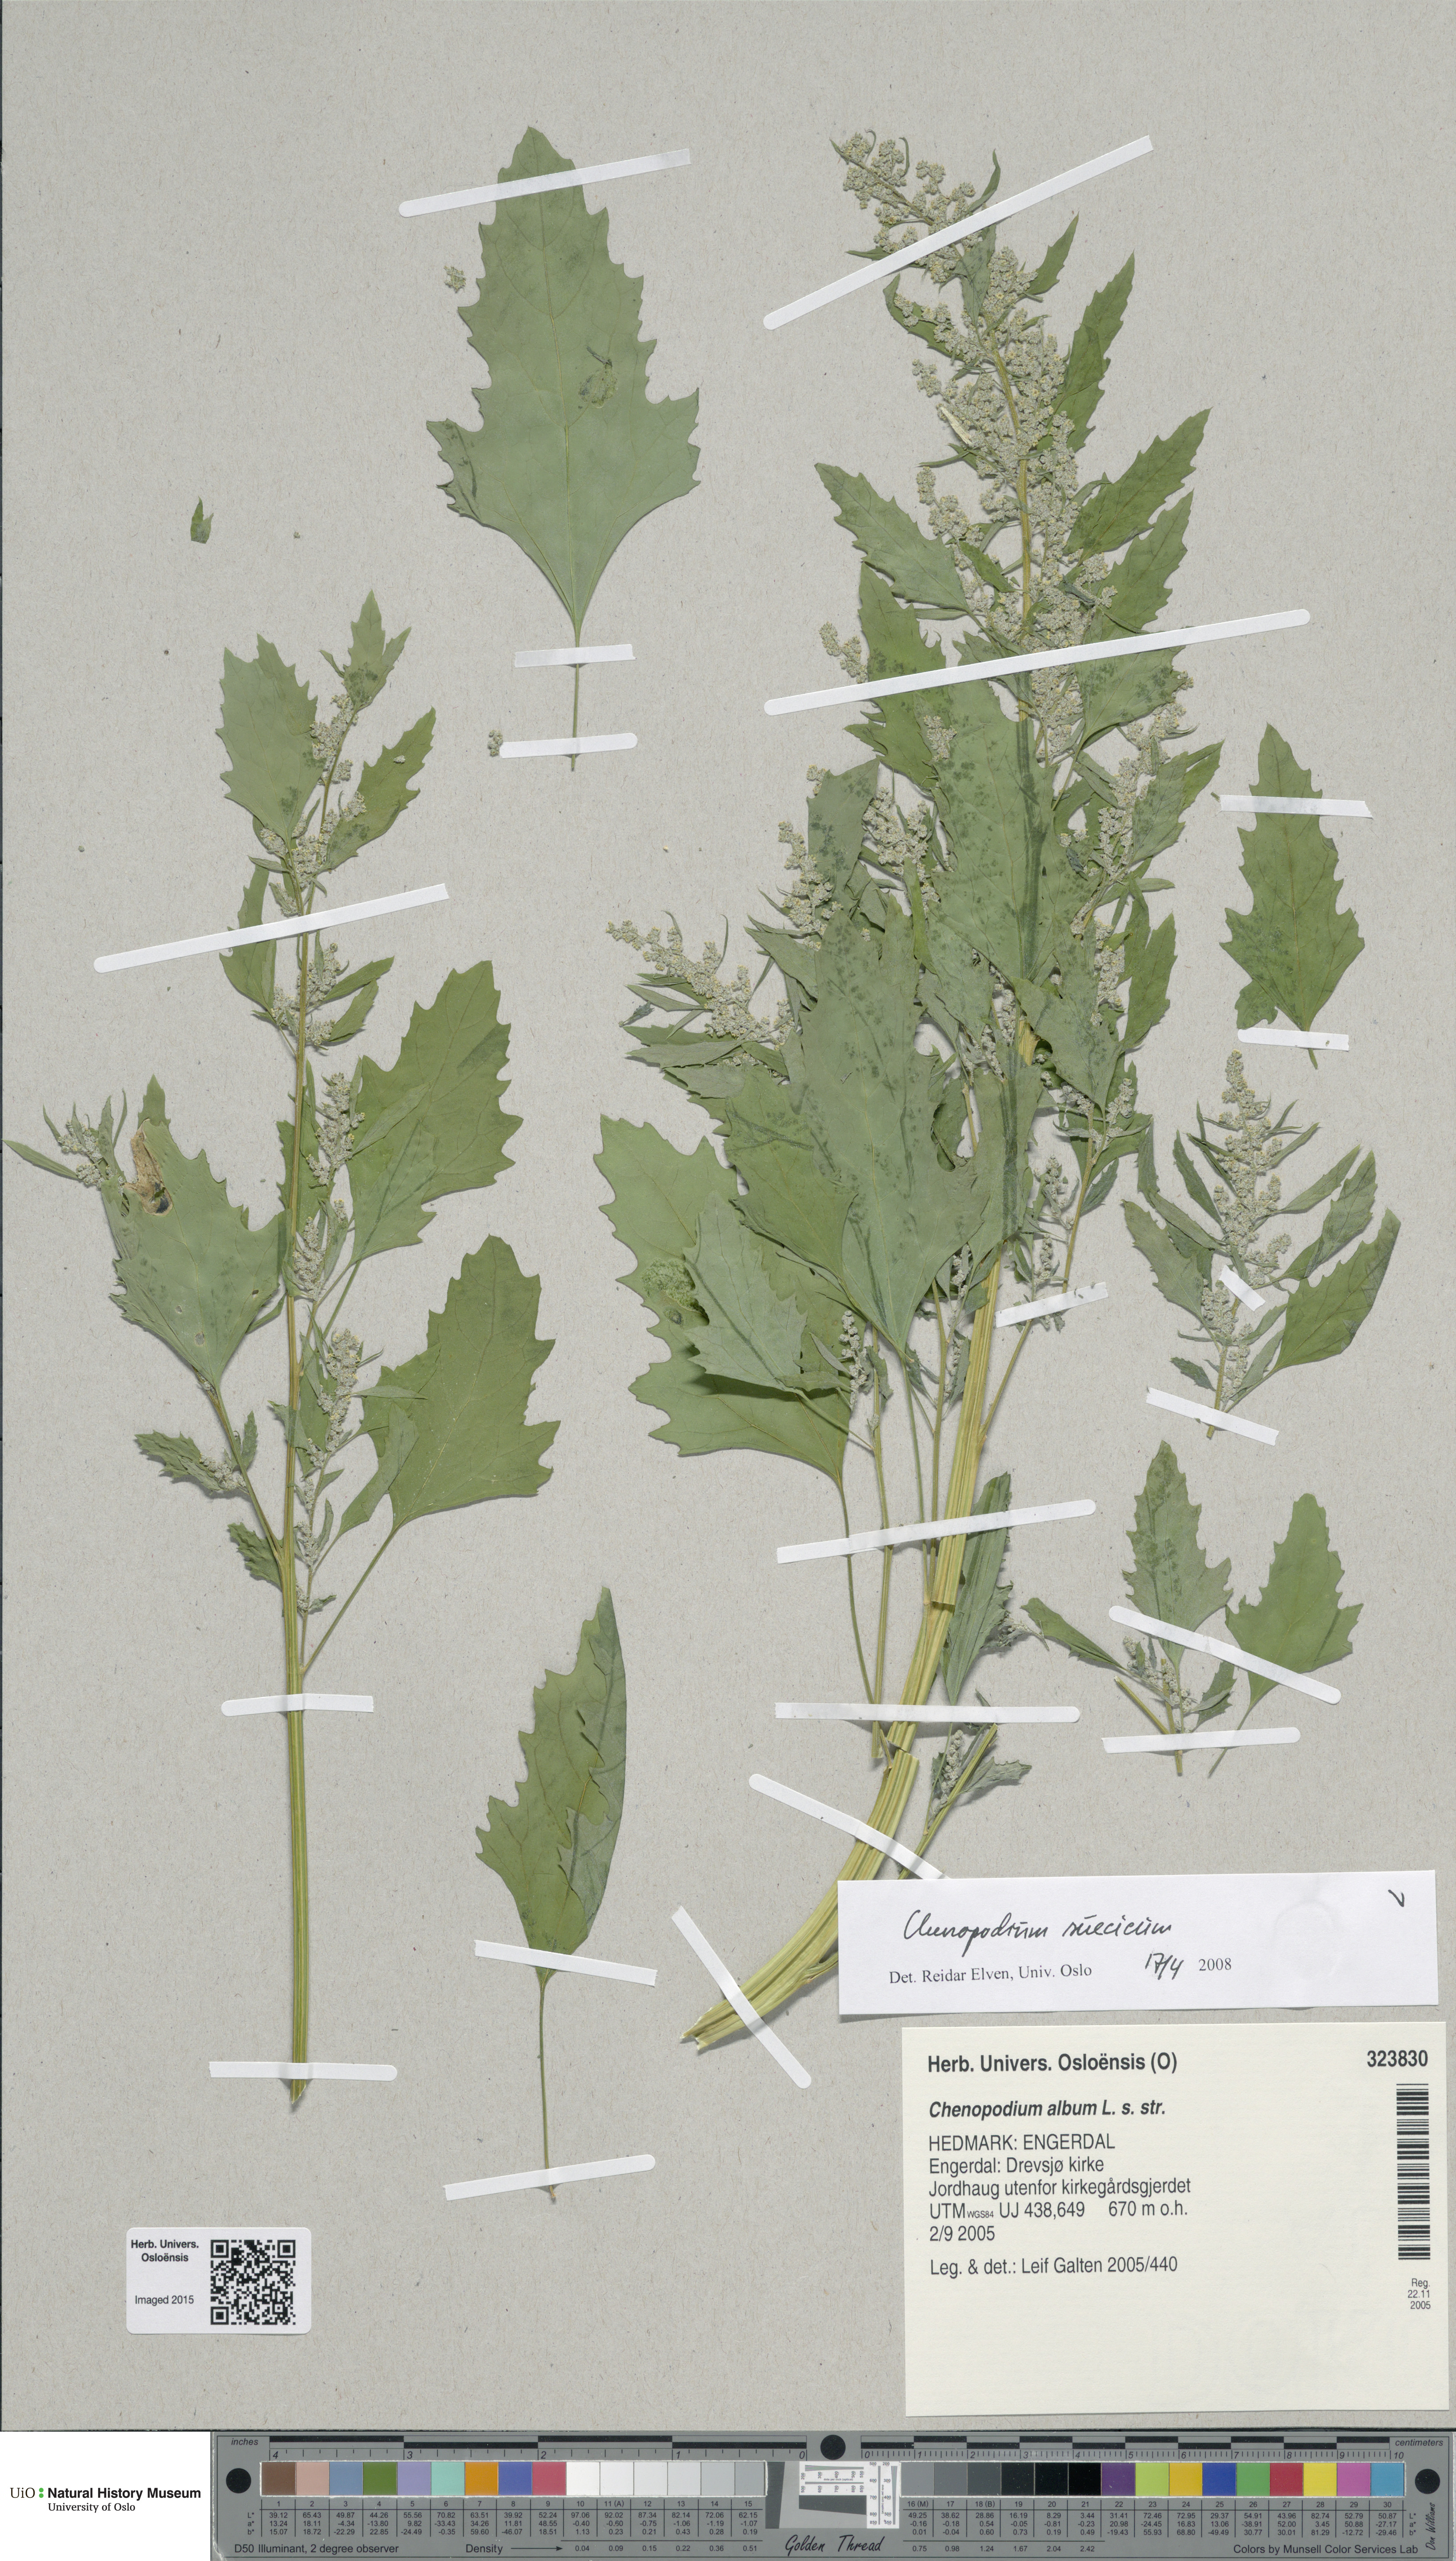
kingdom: Plantae
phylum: Tracheophyta
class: Magnoliopsida
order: Caryophyllales
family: Amaranthaceae
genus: Chenopodium
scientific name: Chenopodium suecicum
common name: Swedish goosefoot
